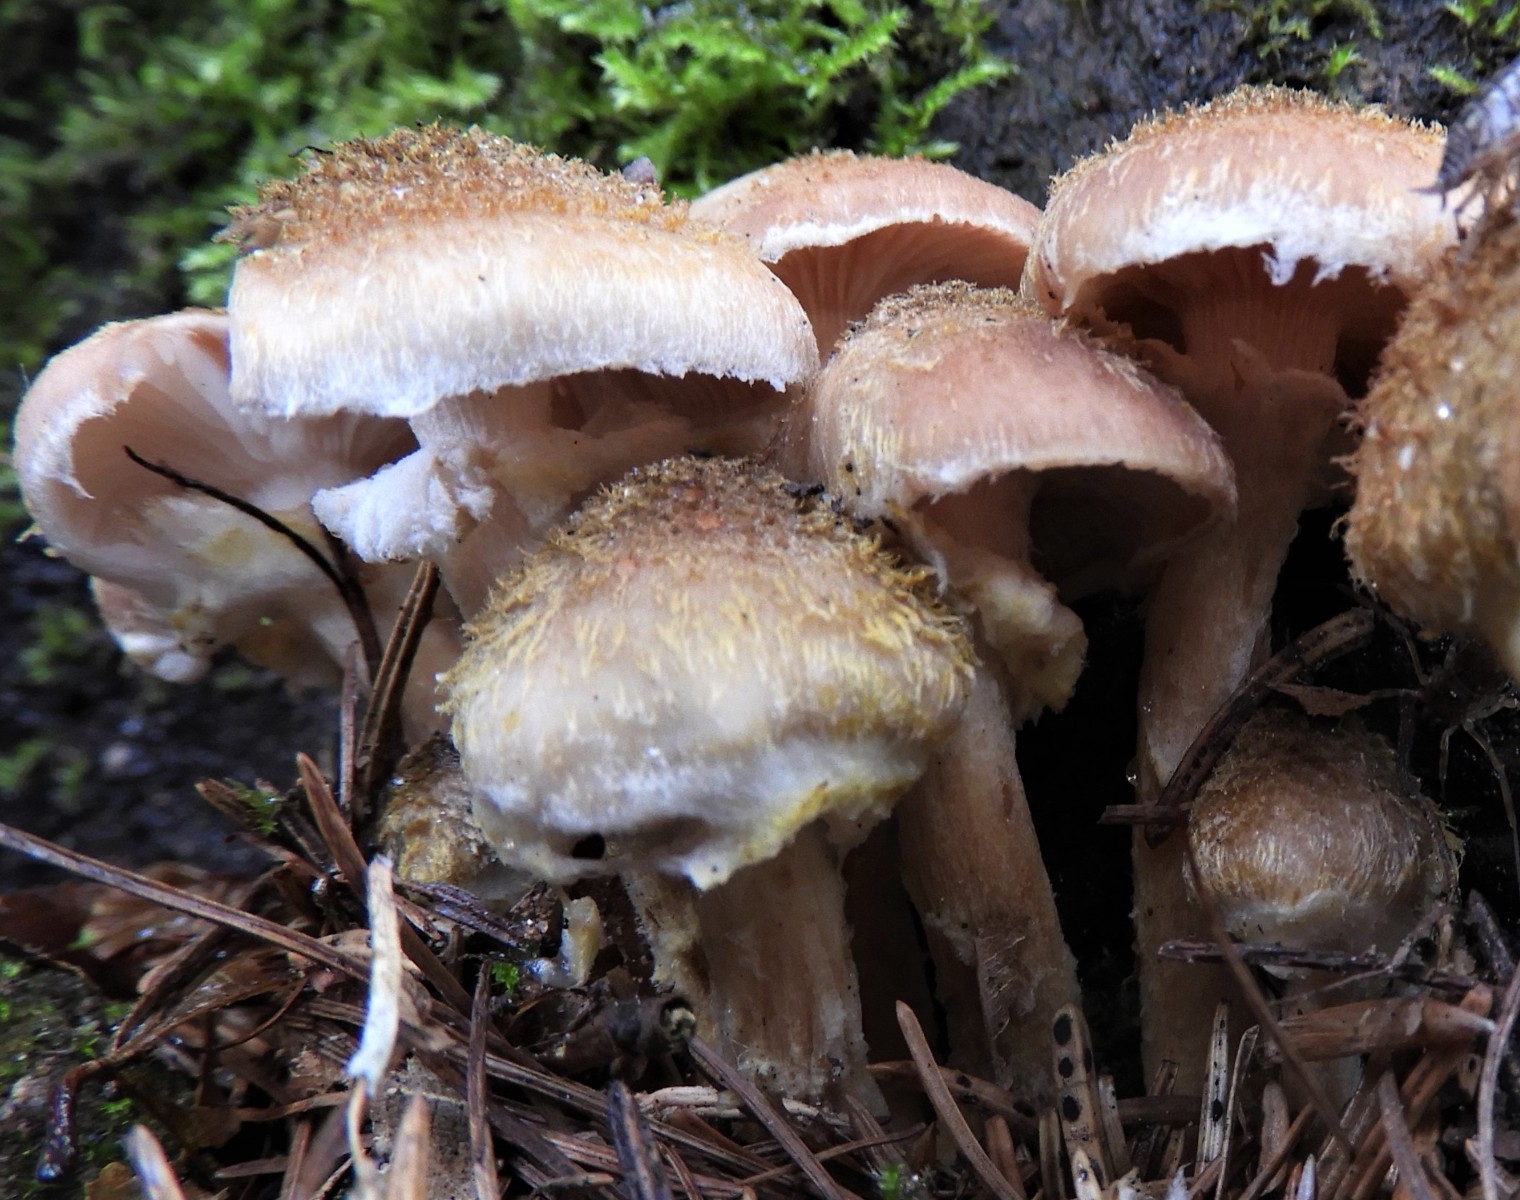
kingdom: Fungi
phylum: Basidiomycota
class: Agaricomycetes
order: Agaricales
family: Physalacriaceae
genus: Armillaria
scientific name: Armillaria lutea
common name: køllestokket honningsvamp
